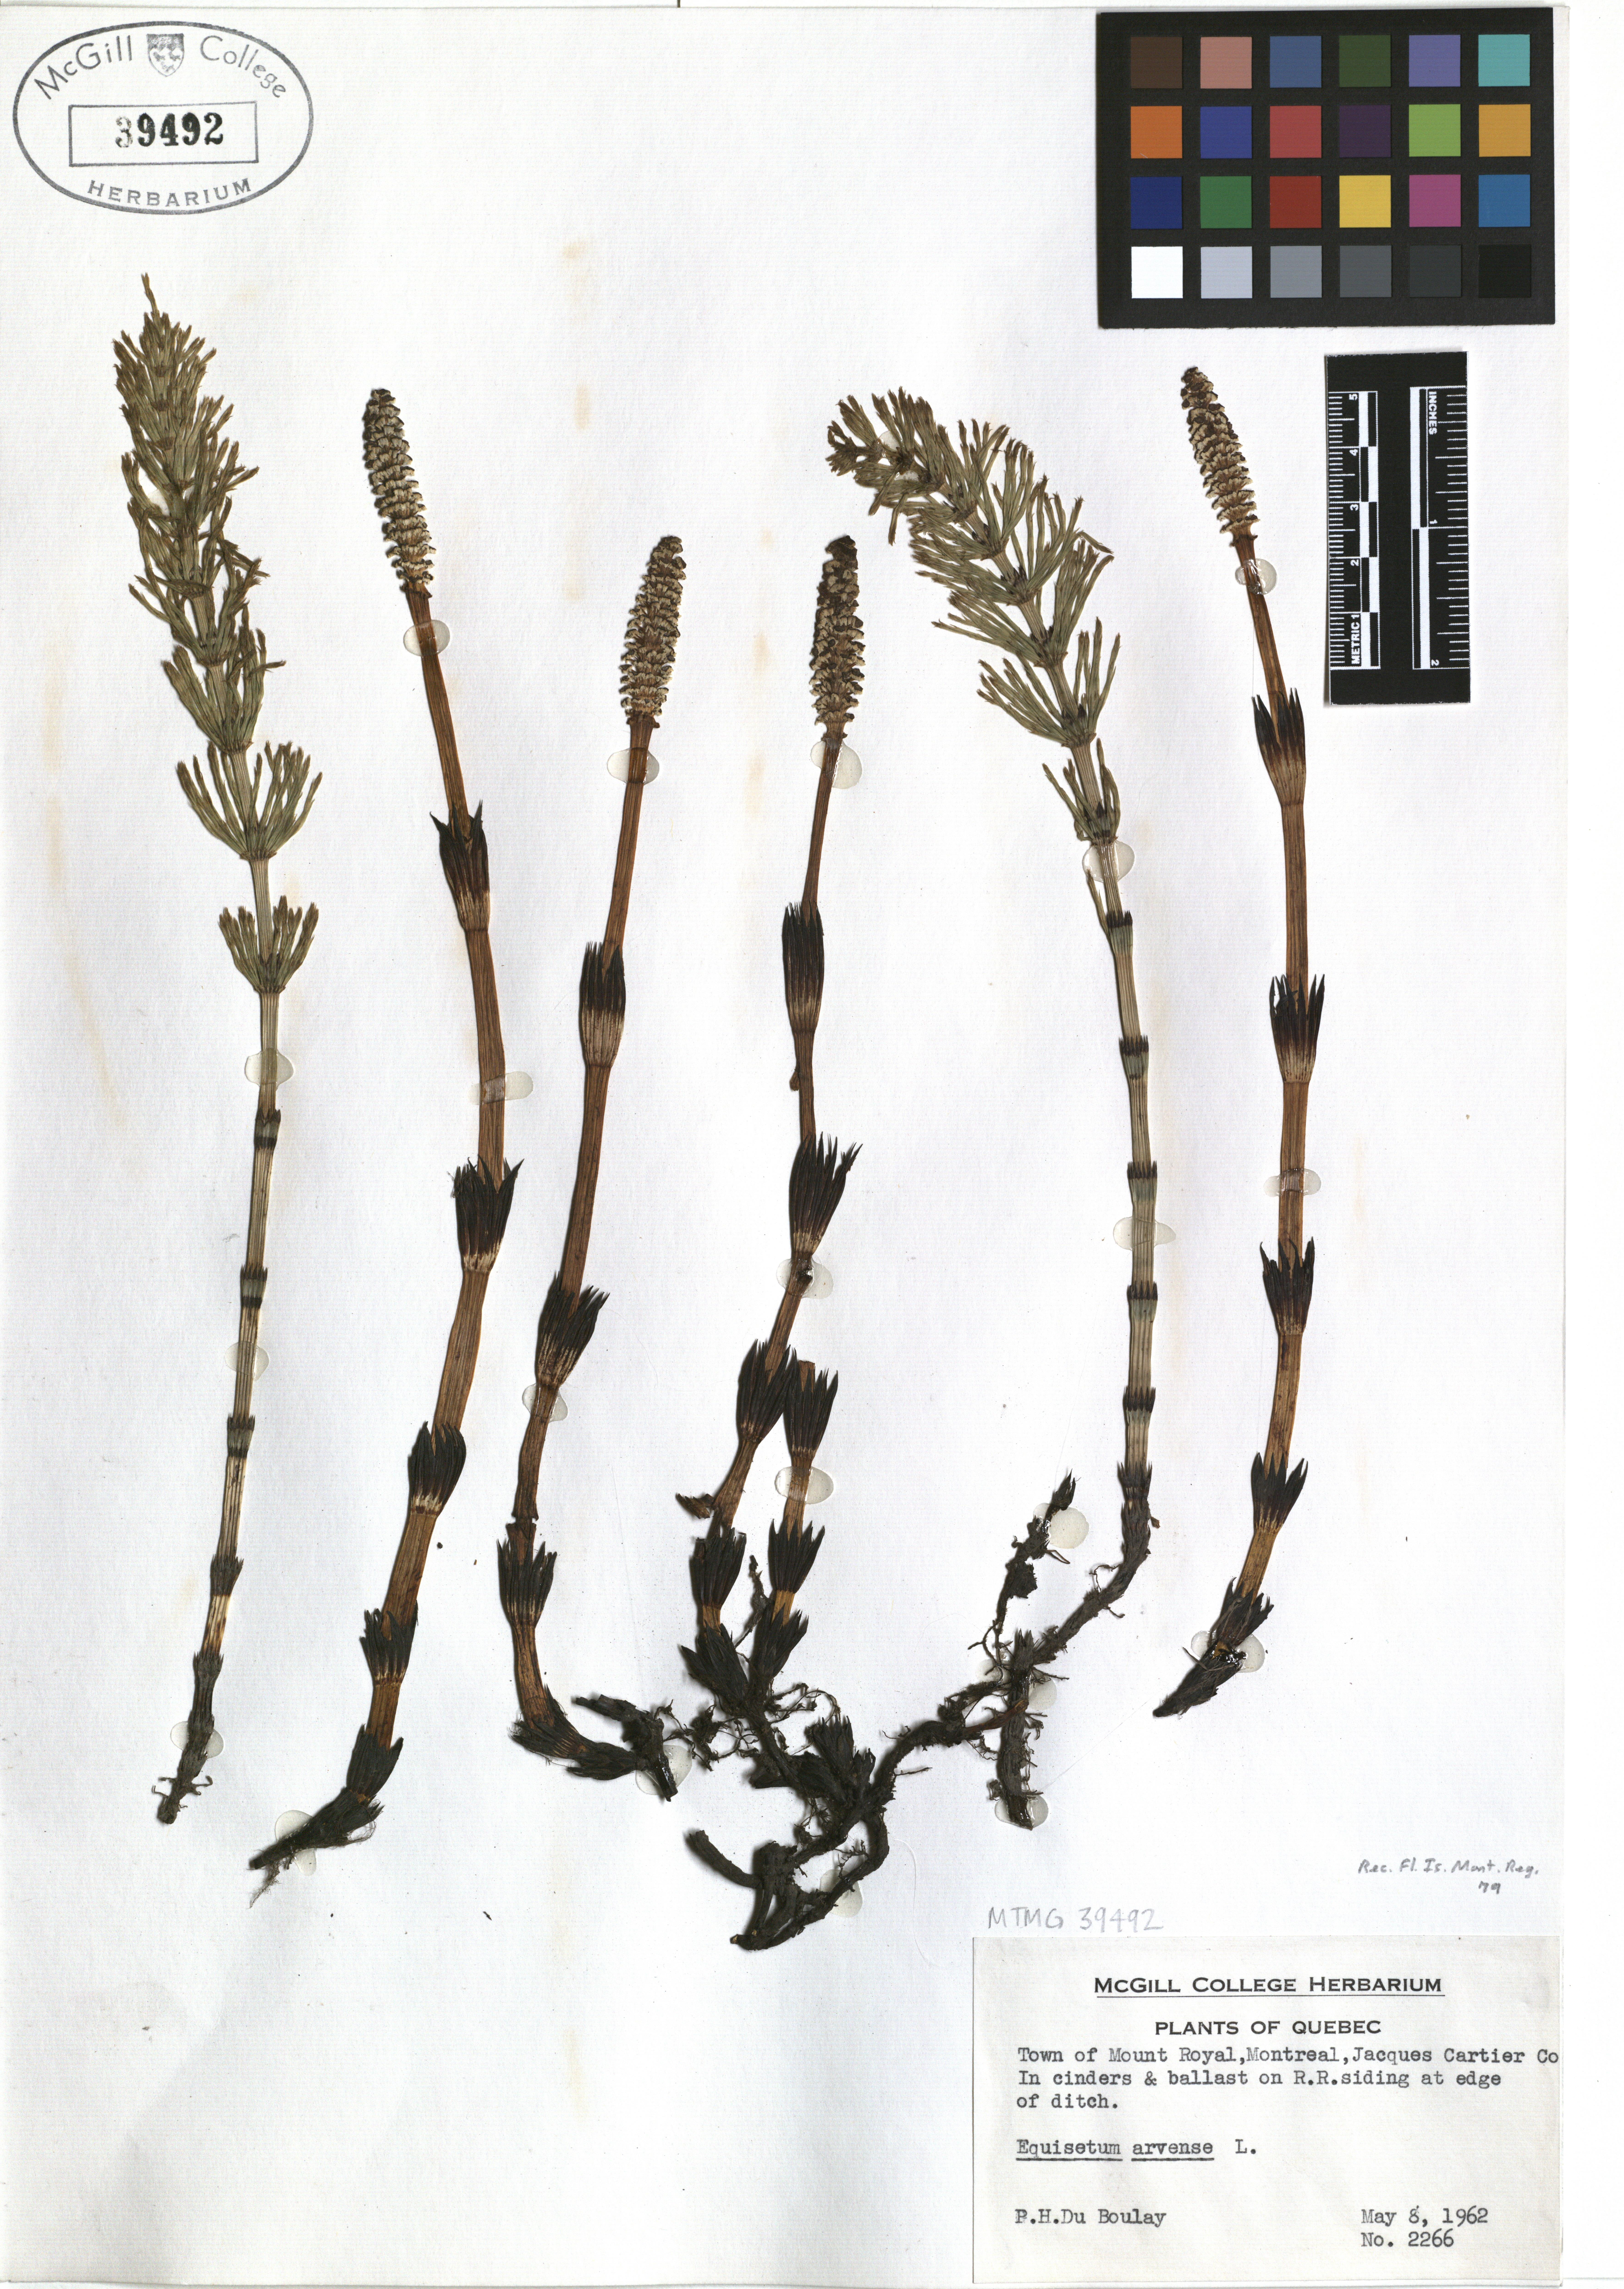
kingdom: Plantae
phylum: Tracheophyta
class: Polypodiopsida
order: Equisetales
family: Equisetaceae
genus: Equisetum
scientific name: Equisetum arvense
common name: Field horsetail
